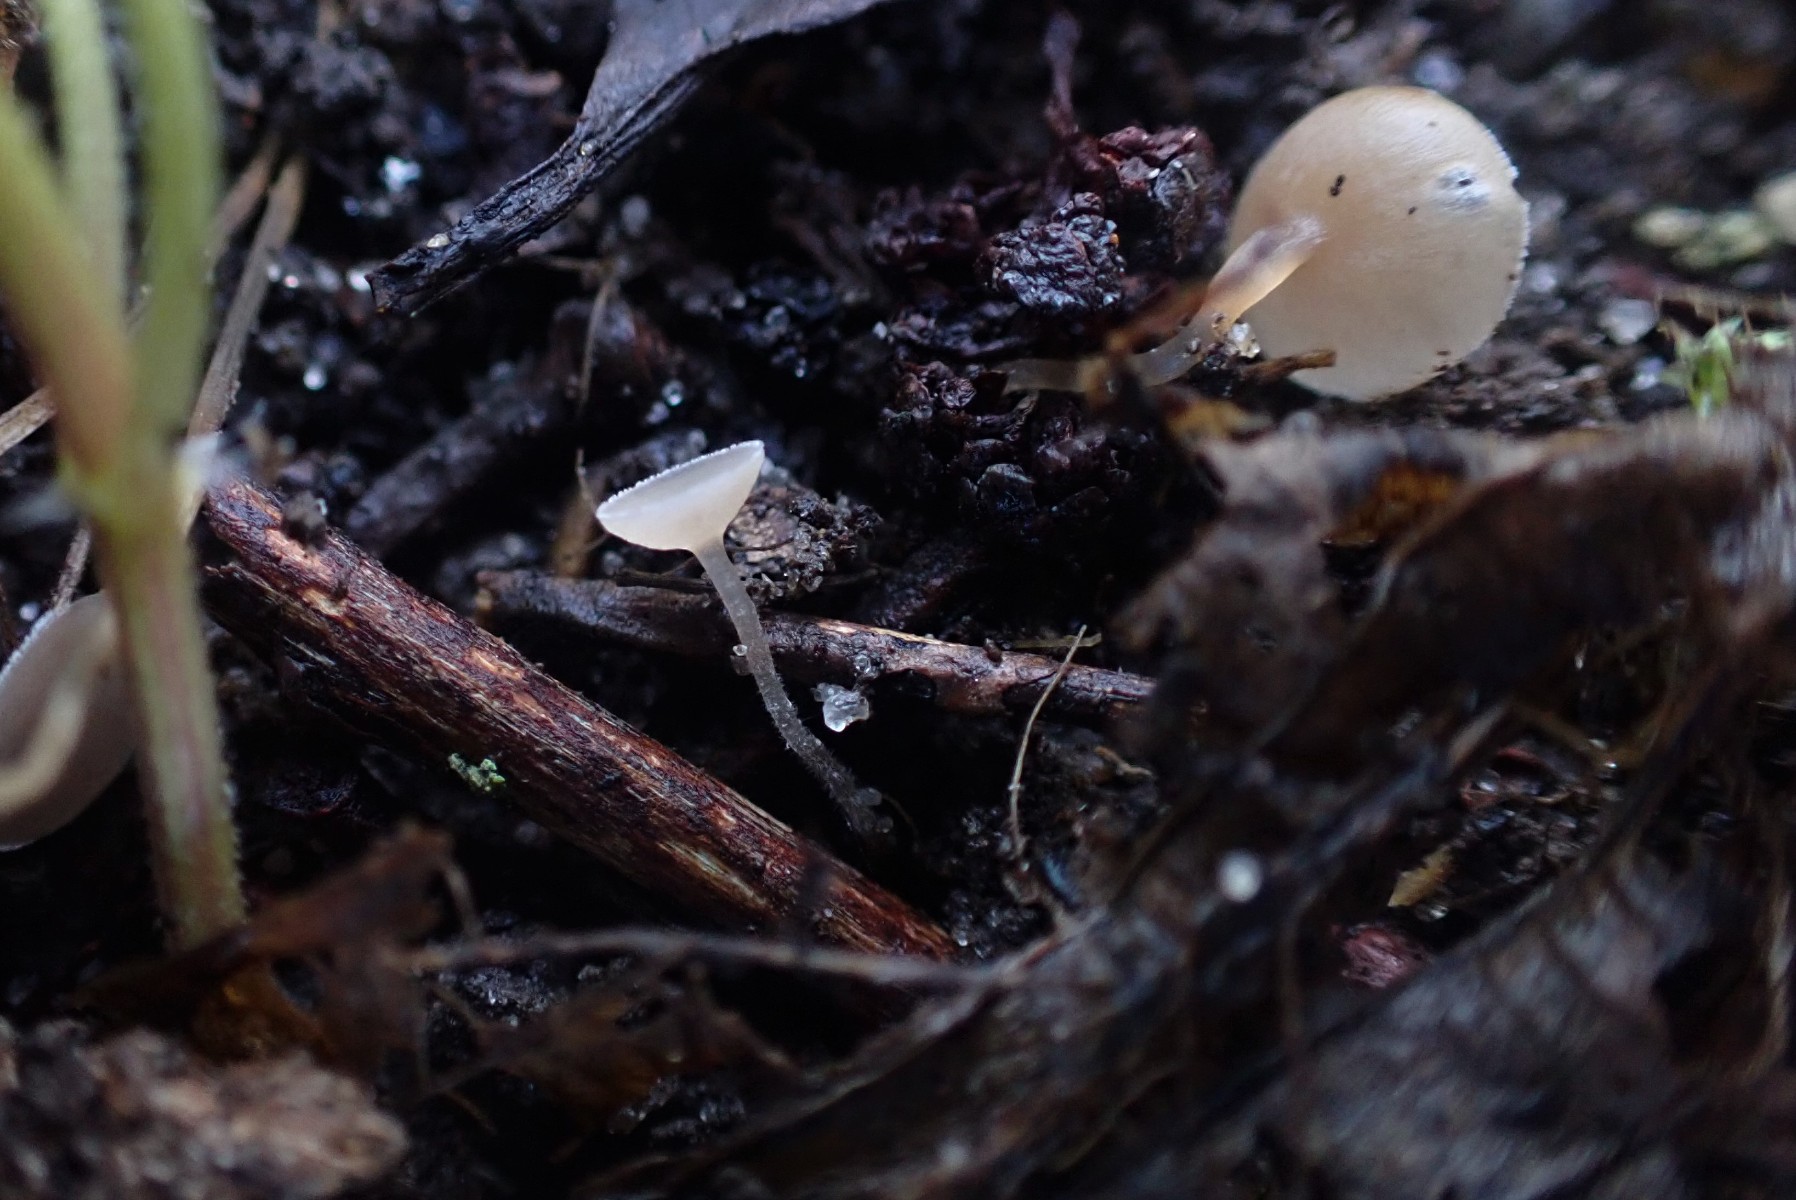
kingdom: Fungi
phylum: Ascomycota
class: Leotiomycetes
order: Helotiales
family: Sclerotiniaceae
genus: Ciboria
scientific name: Ciboria amentacea
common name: ellerakle-knoldskive
